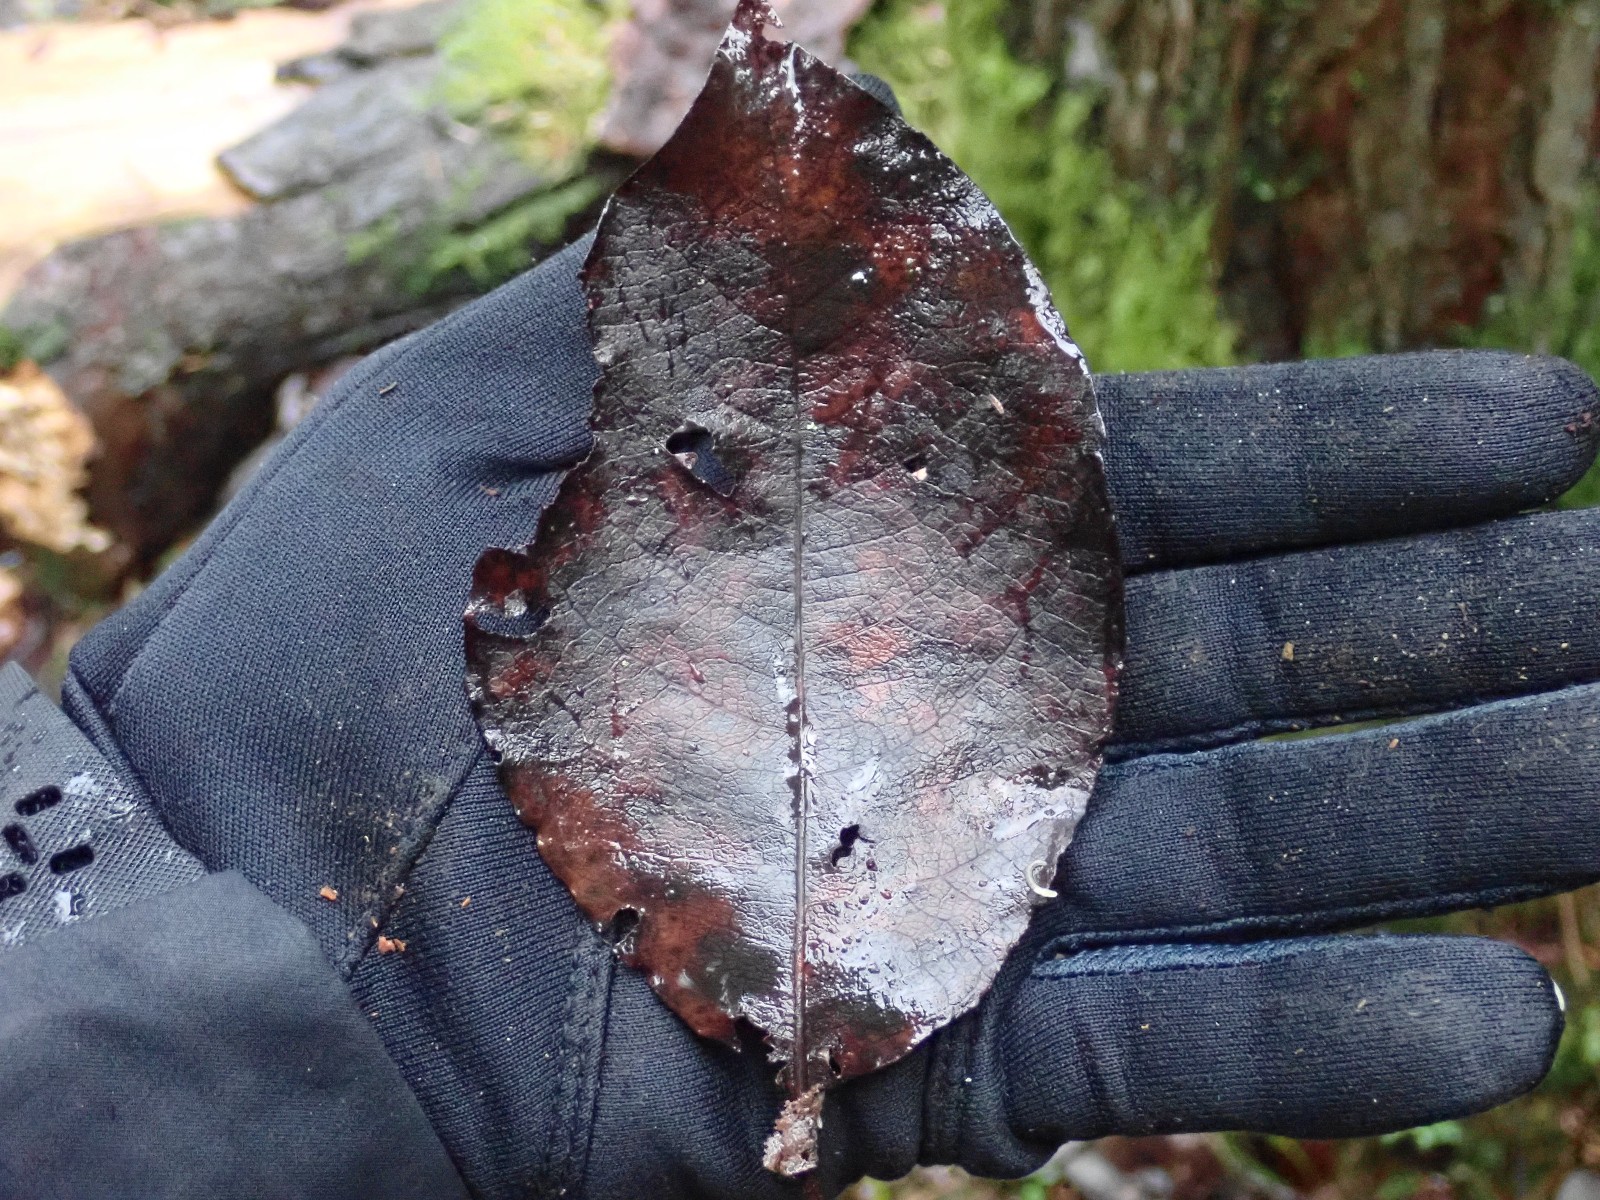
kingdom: Fungi
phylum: Basidiomycota
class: Agaricomycetes
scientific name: Agaricomycetes
